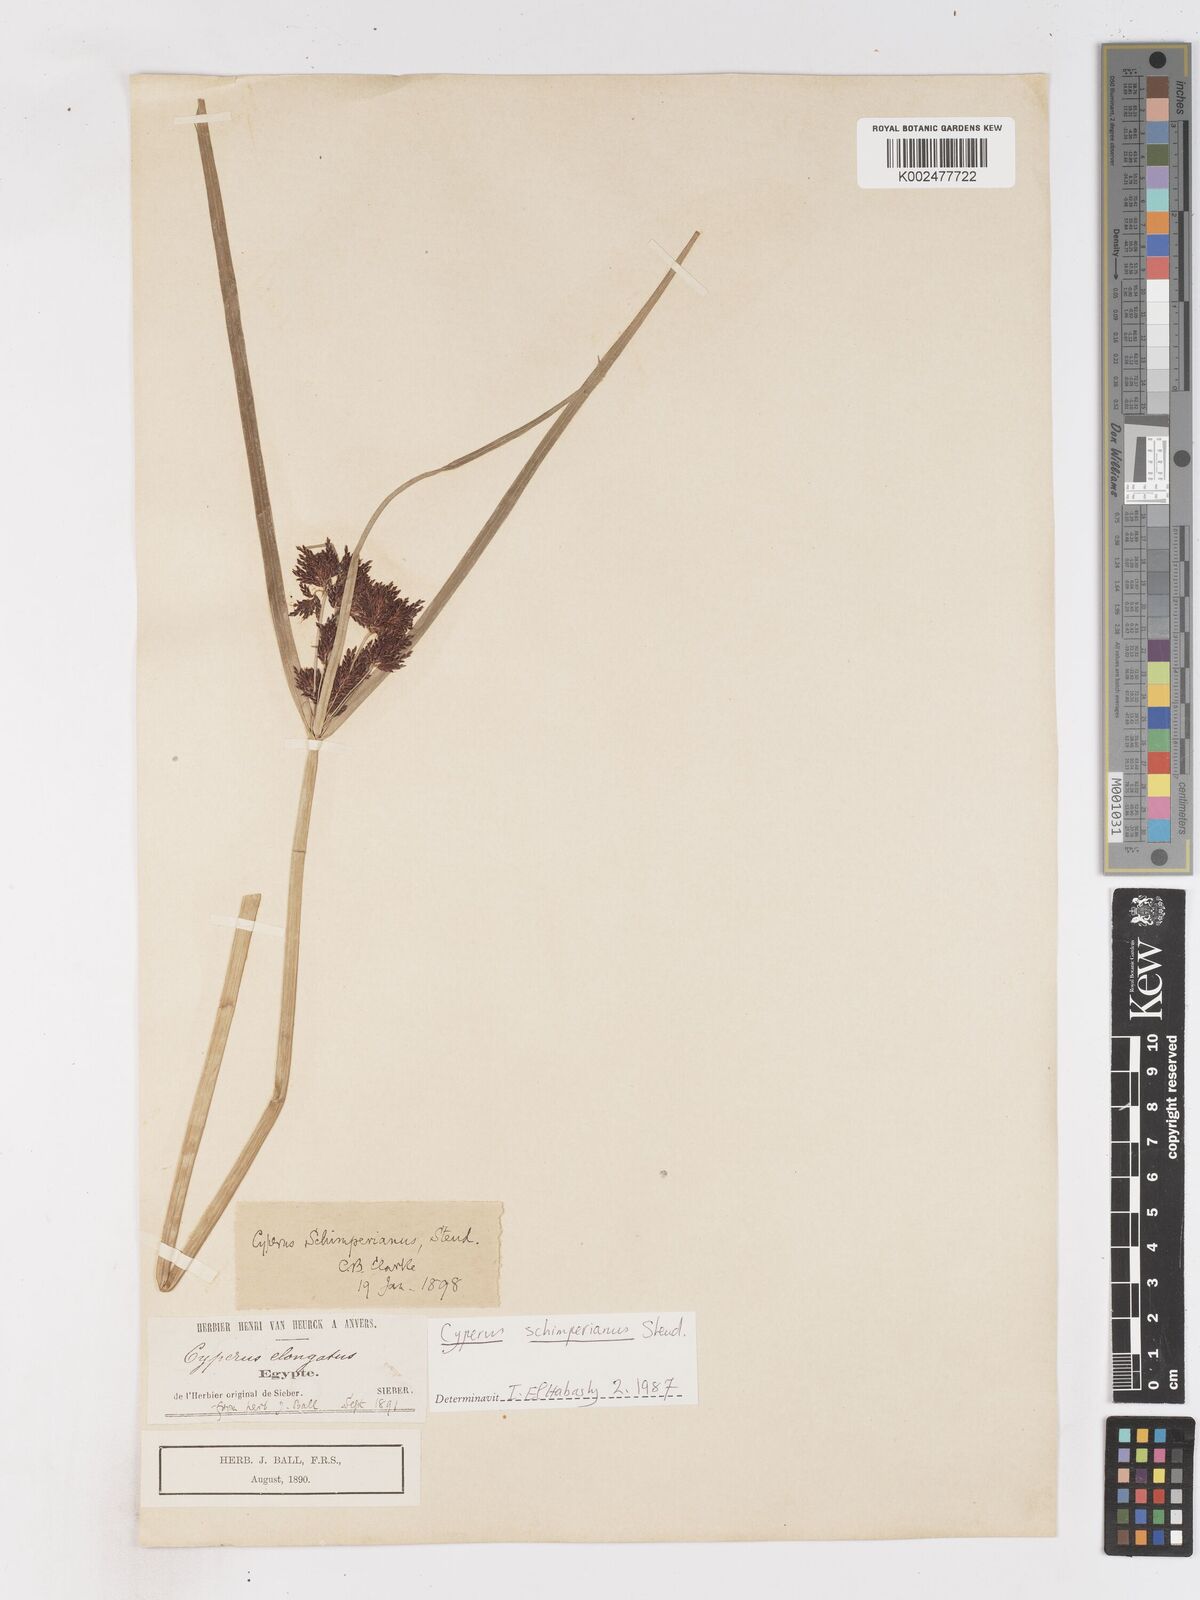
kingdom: Plantae
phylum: Tracheophyta
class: Liliopsida
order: Poales
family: Cyperaceae
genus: Cyperus
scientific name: Cyperus schimperianus
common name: Schimper flatsedge
